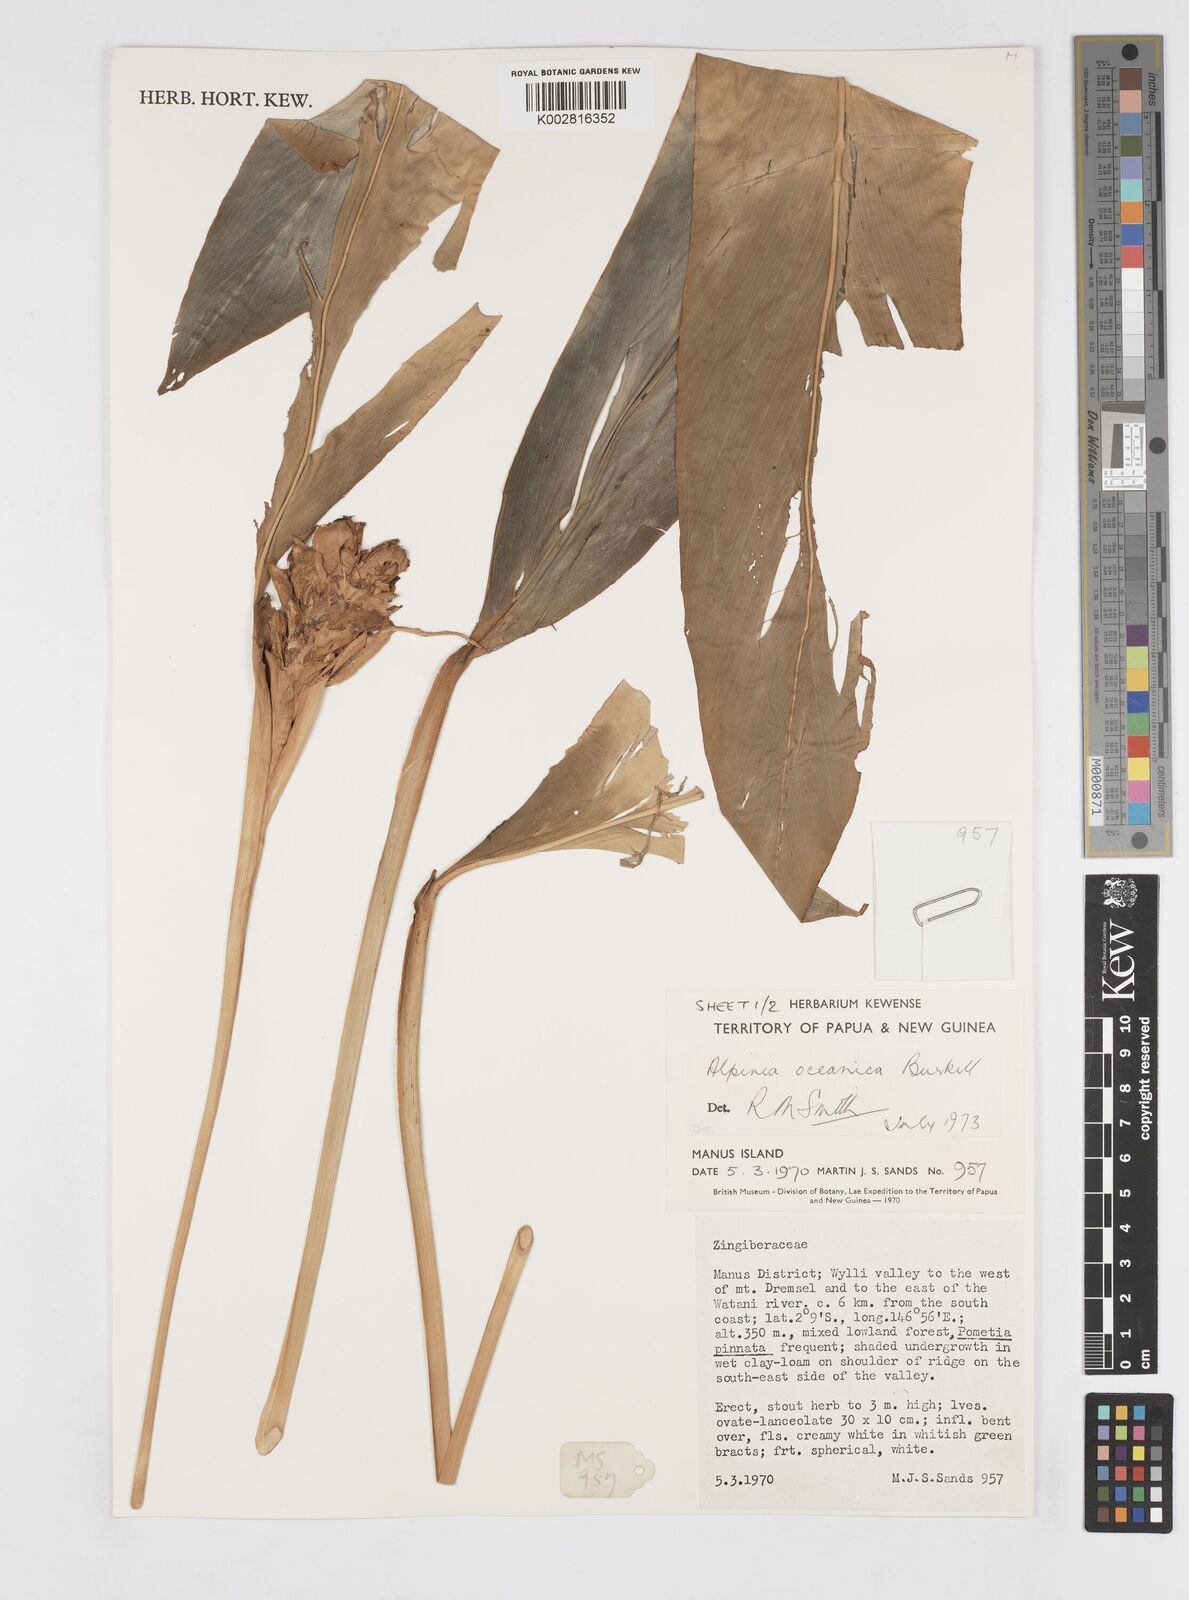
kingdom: Plantae
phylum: Tracheophyta
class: Liliopsida
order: Zingiberales
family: Zingiberaceae
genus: Alpinia
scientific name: Alpinia oceanica
